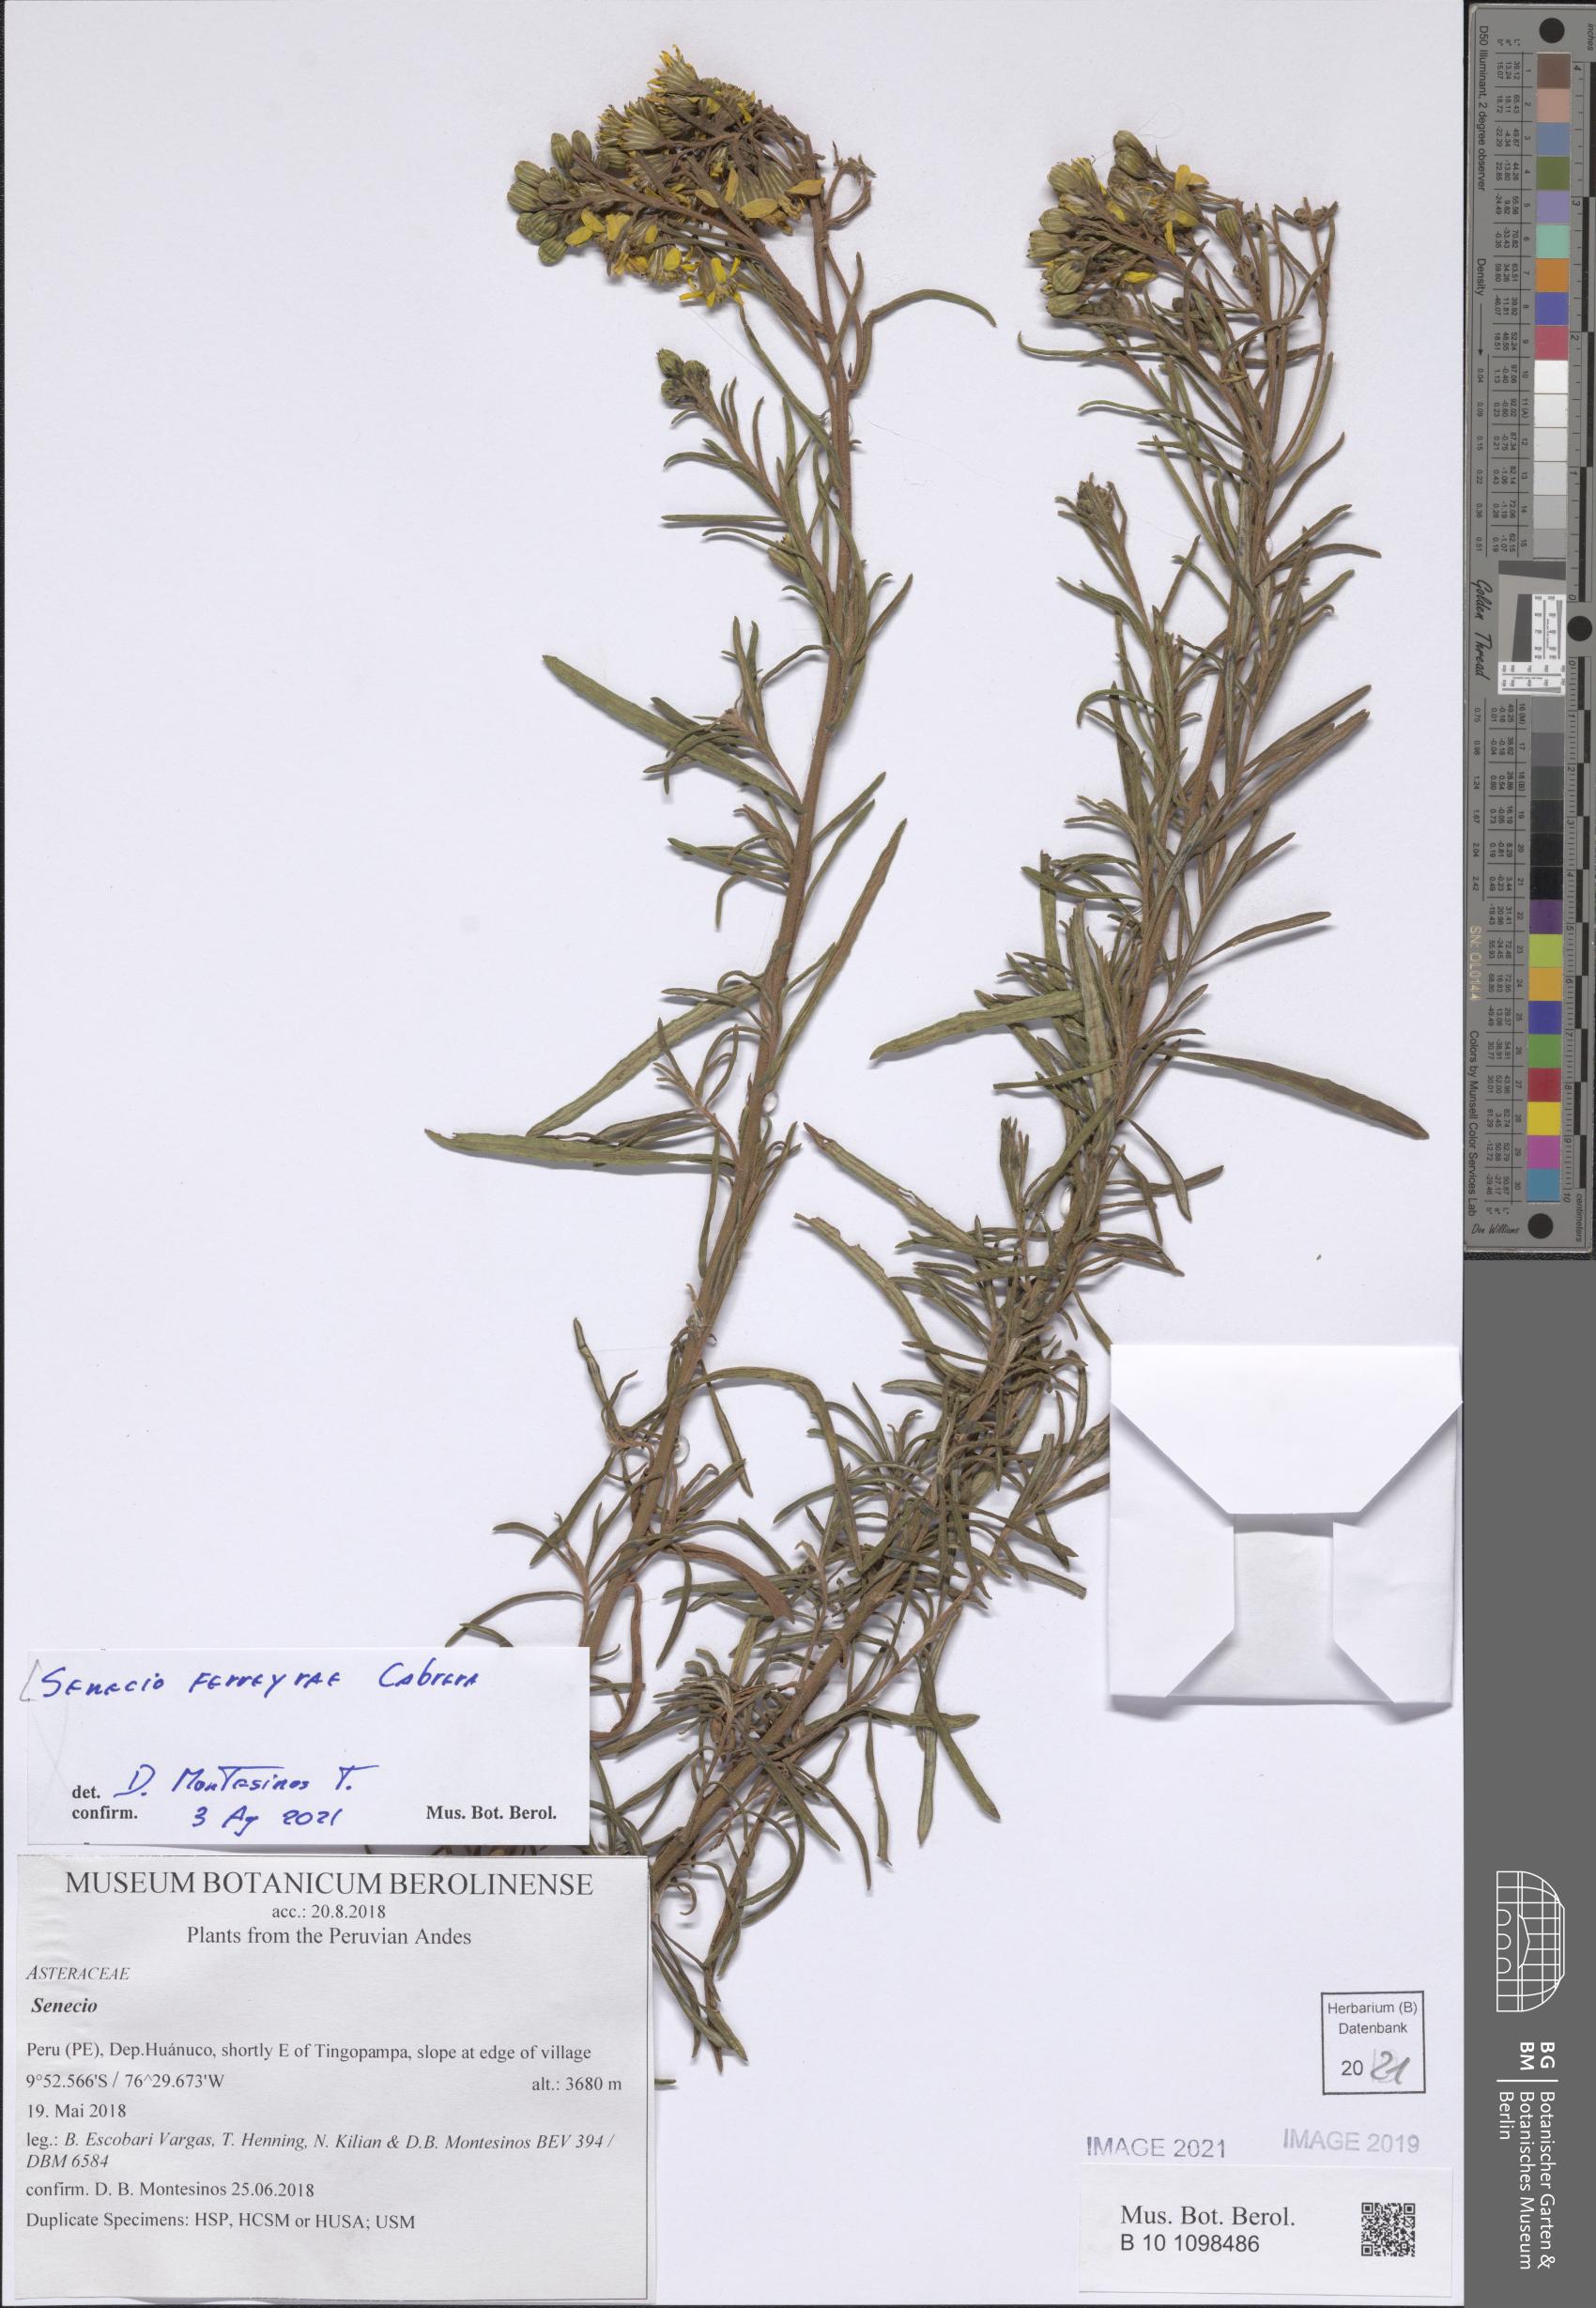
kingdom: Plantae
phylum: Tracheophyta
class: Magnoliopsida
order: Asterales
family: Asteraceae
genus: Senecio
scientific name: Senecio ferreyrae
